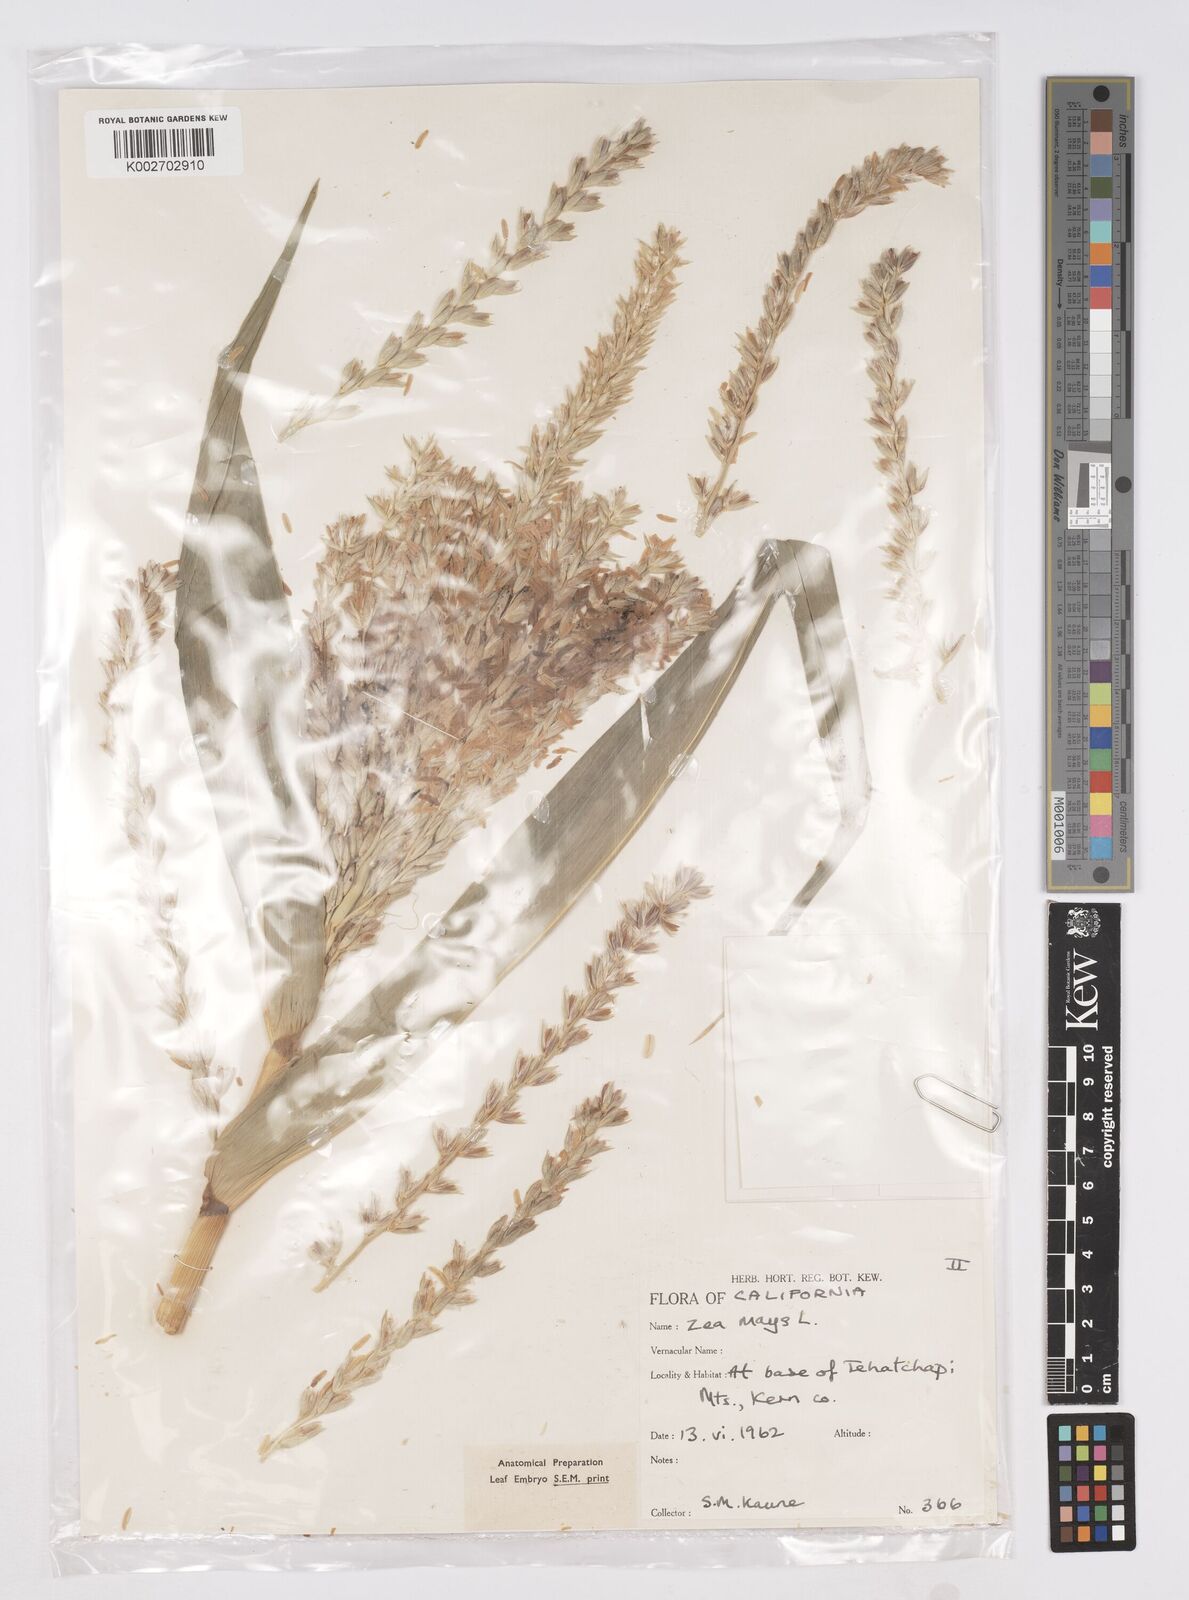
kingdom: Plantae
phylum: Tracheophyta
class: Liliopsida
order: Poales
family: Poaceae
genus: Zea
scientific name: Zea mays
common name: Maize
